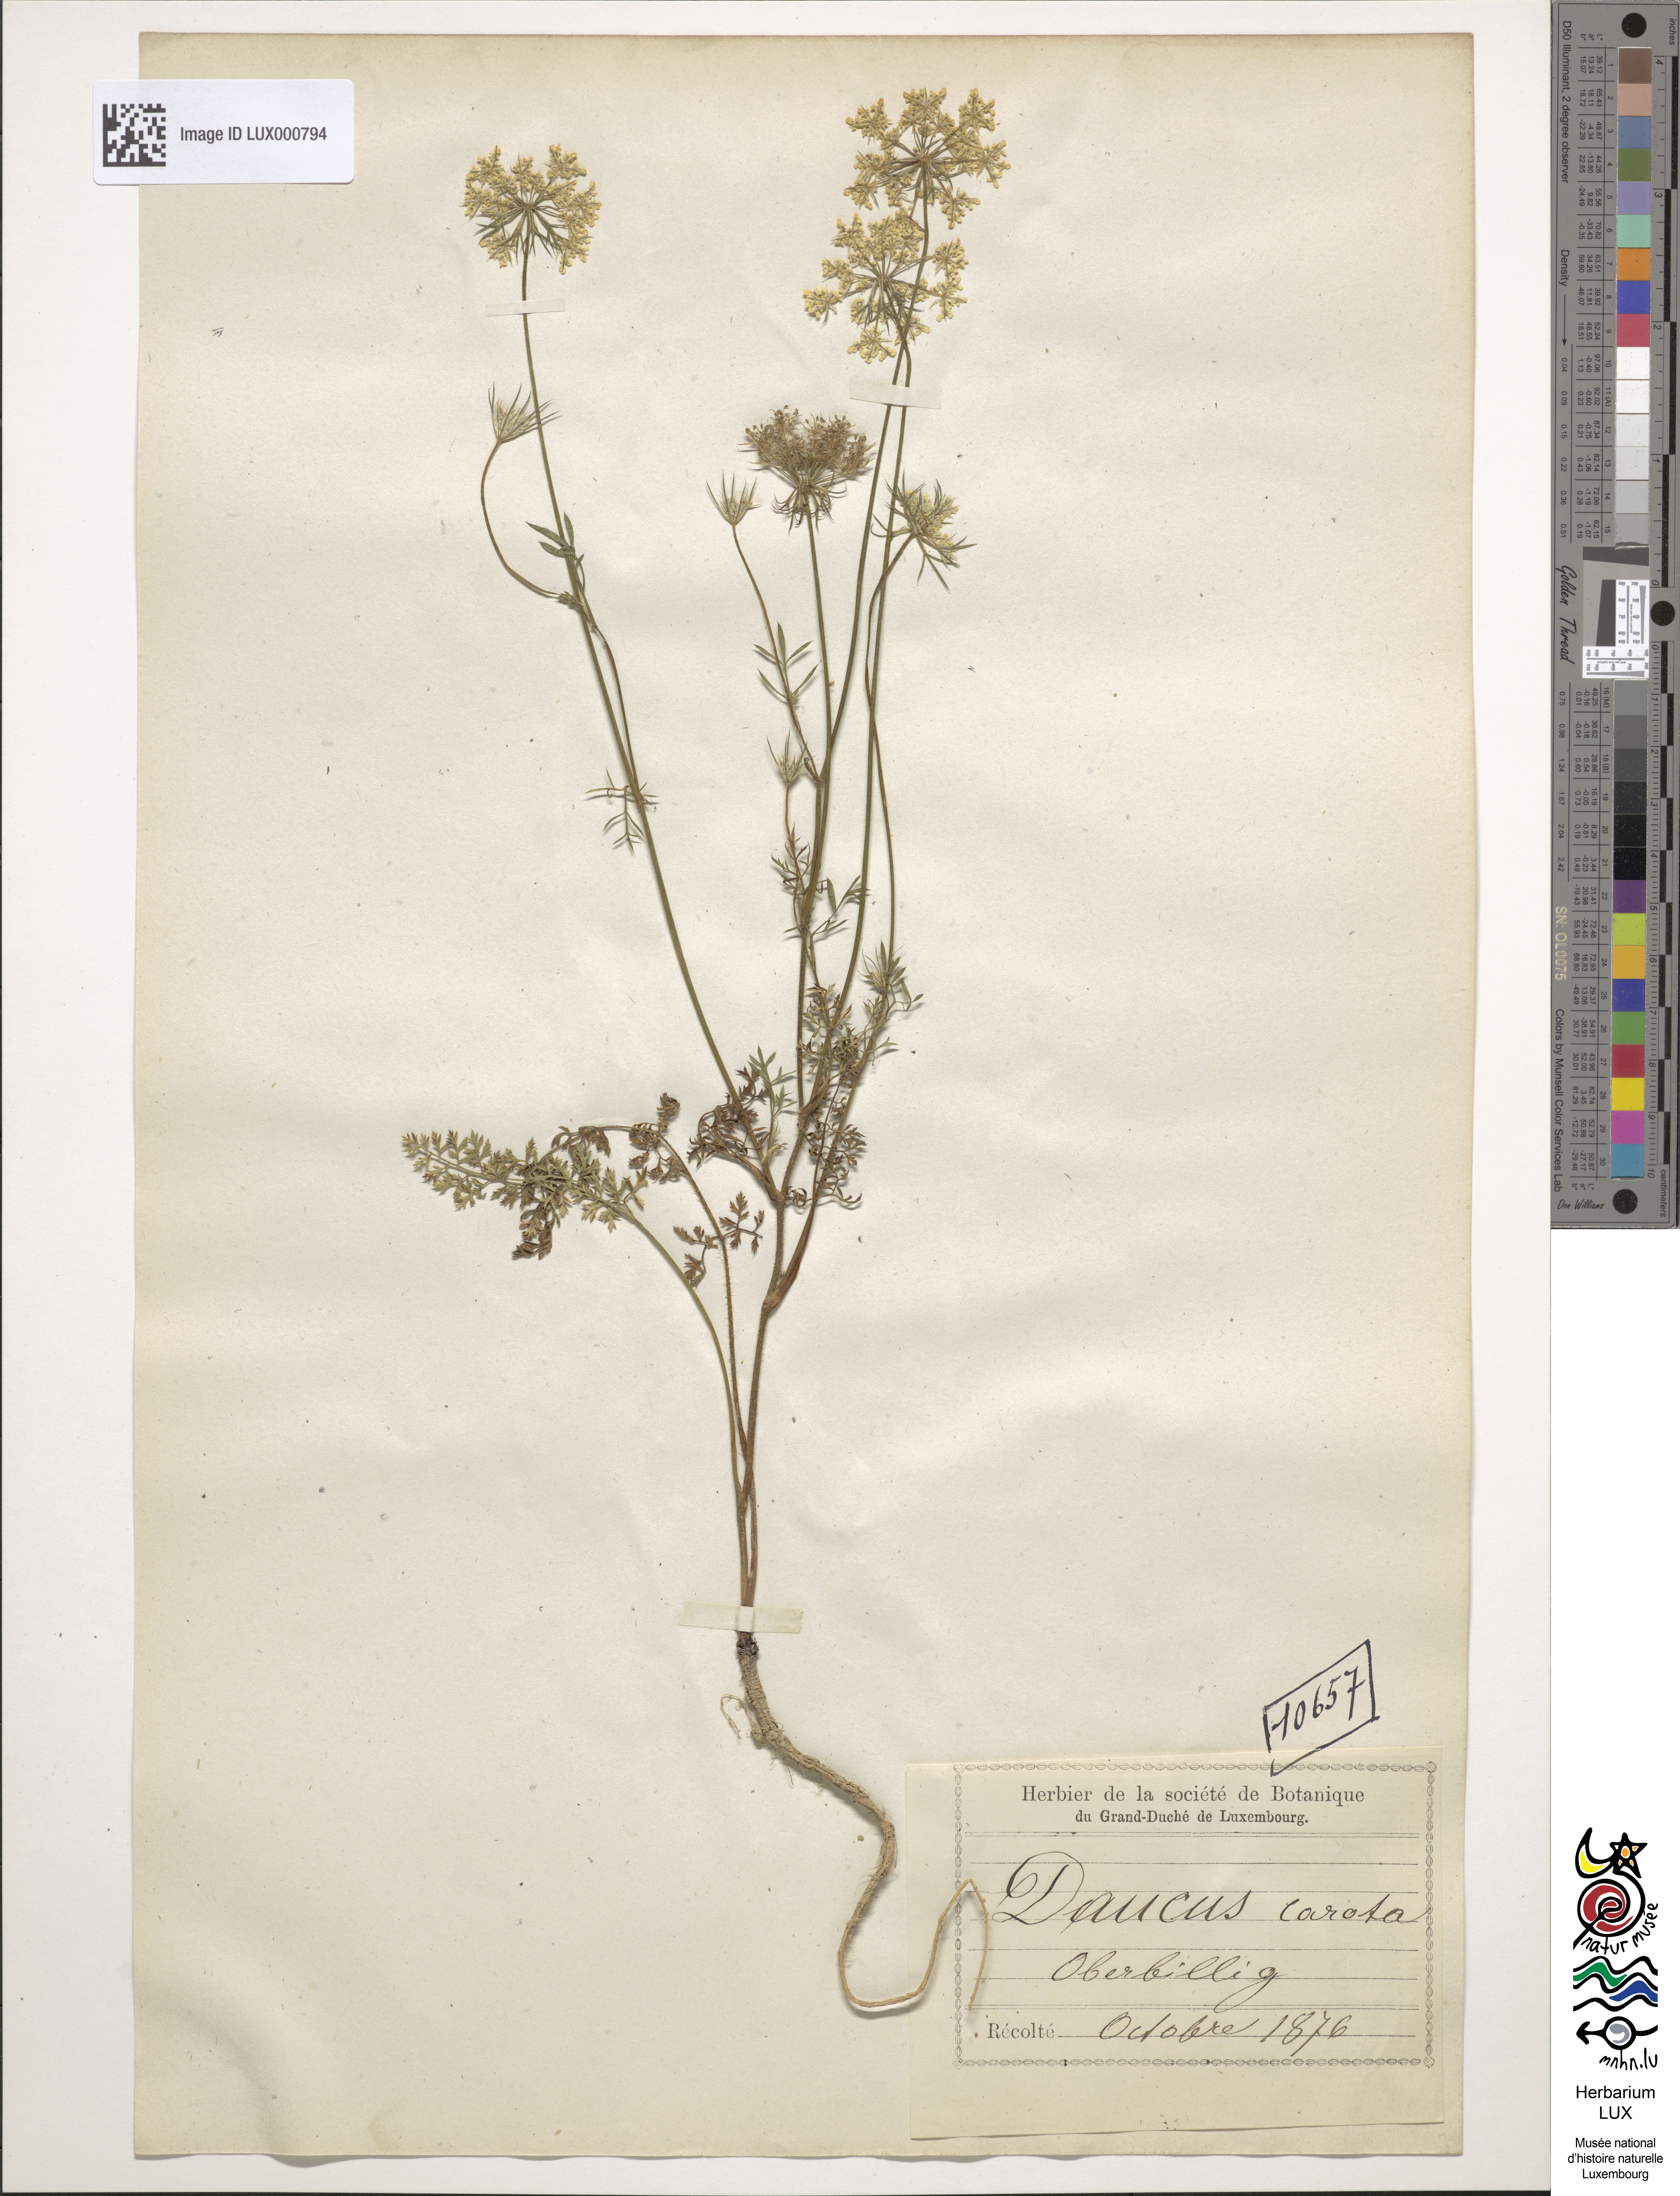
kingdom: Plantae
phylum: Tracheophyta
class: Magnoliopsida
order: Apiales
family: Apiaceae
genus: Daucus
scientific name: Daucus carota
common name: Wild carrot
